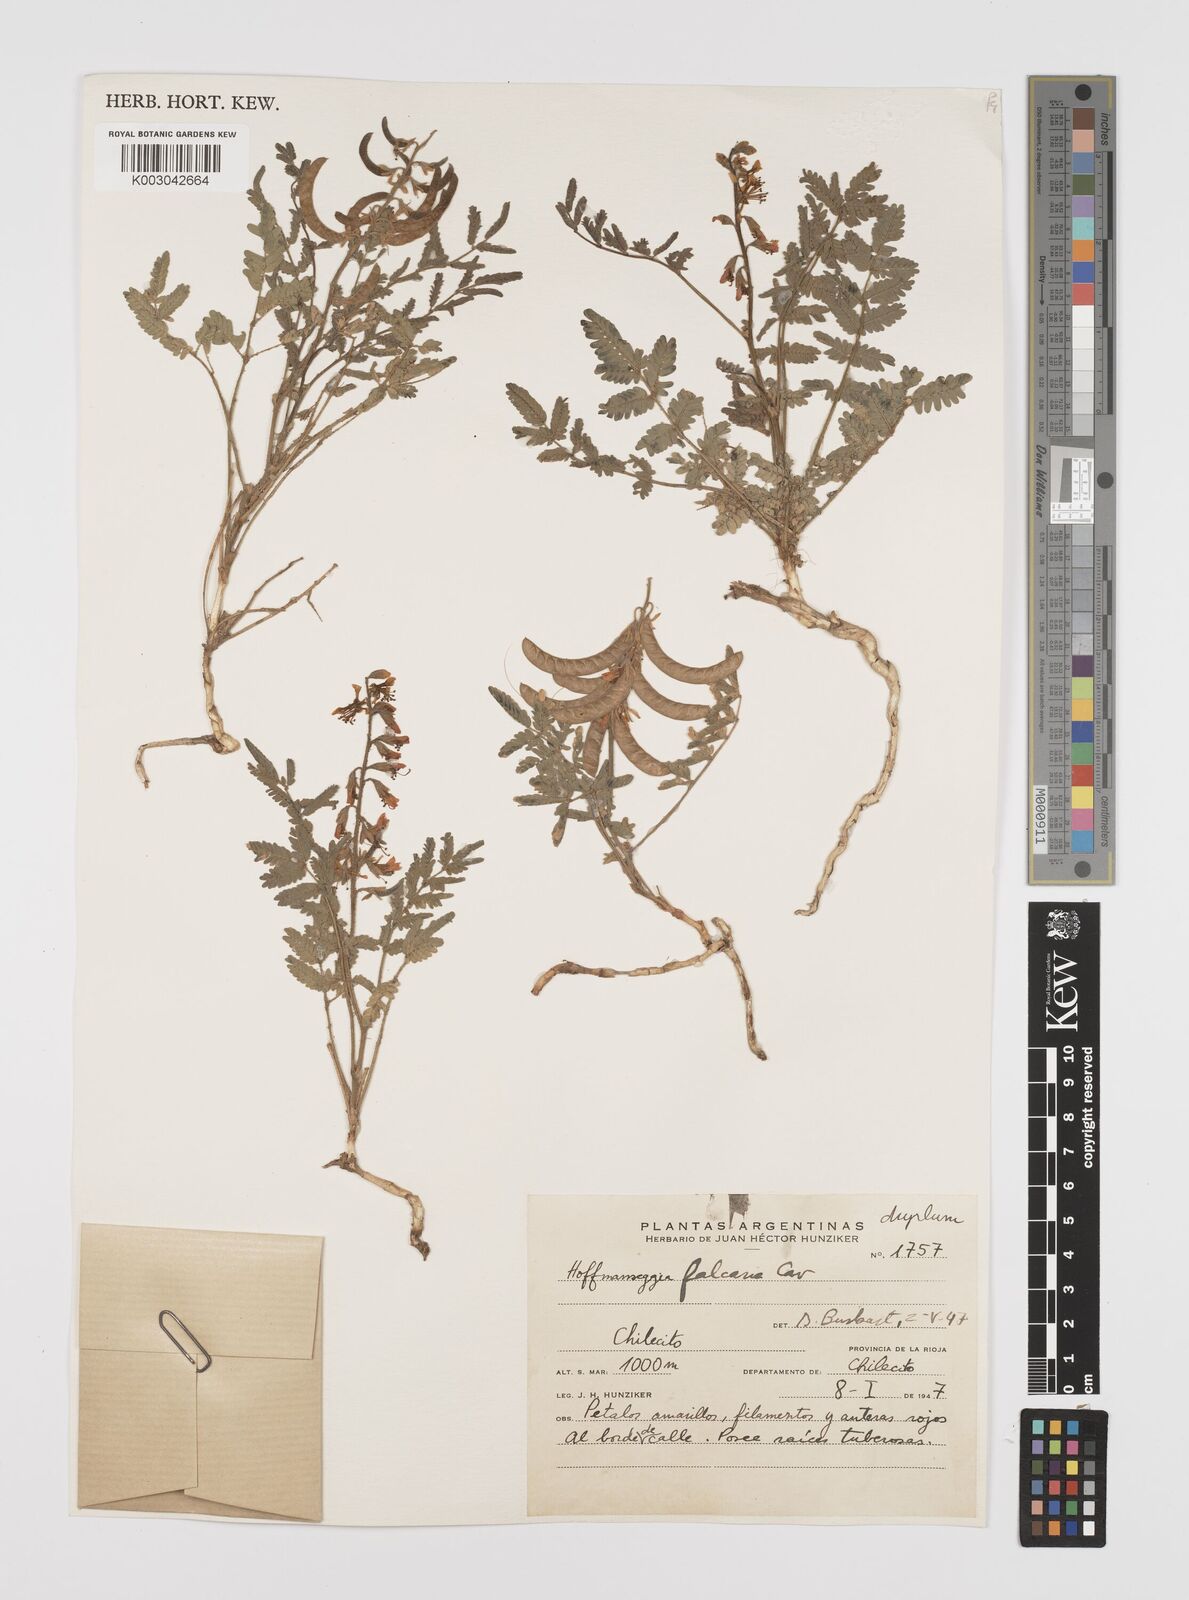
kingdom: Plantae
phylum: Tracheophyta
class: Magnoliopsida
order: Fabales
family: Fabaceae
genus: Hoffmannseggia
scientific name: Hoffmannseggia glauca
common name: Pignut
